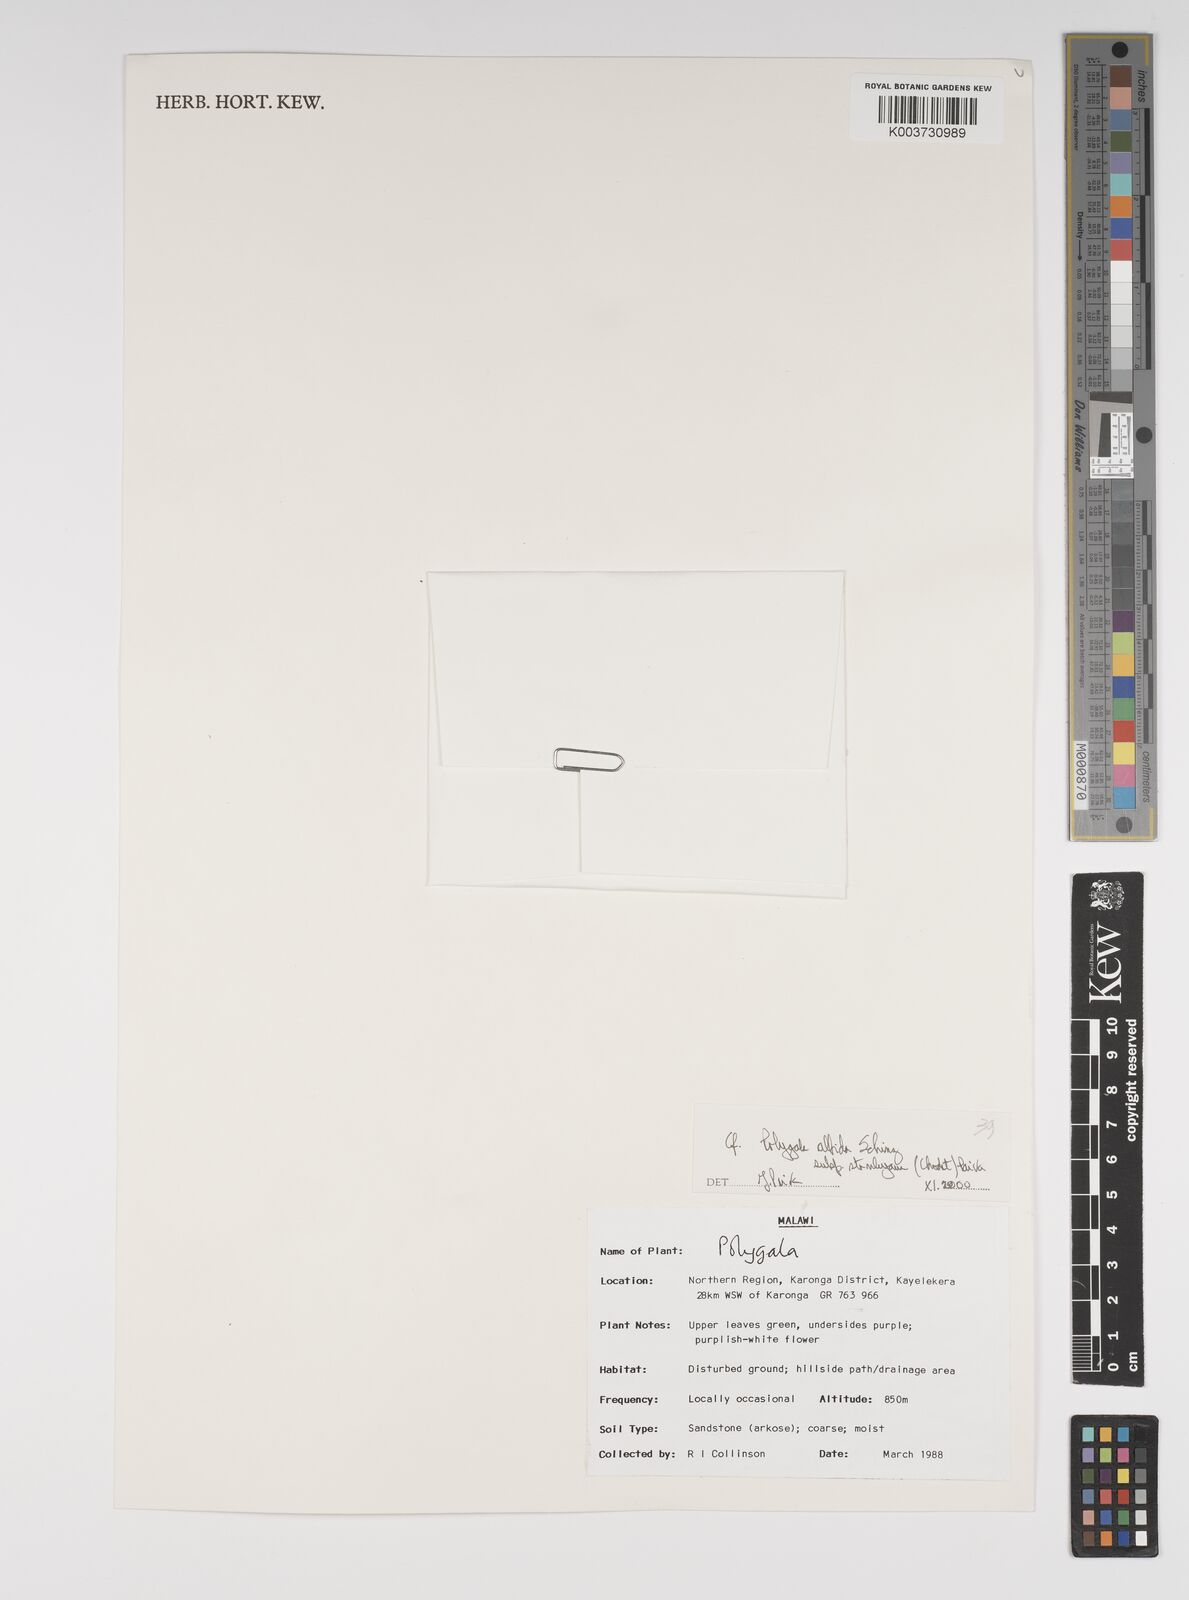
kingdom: Plantae
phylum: Tracheophyta
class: Magnoliopsida
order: Fabales
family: Polygalaceae
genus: Polygala
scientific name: Polygala albida
